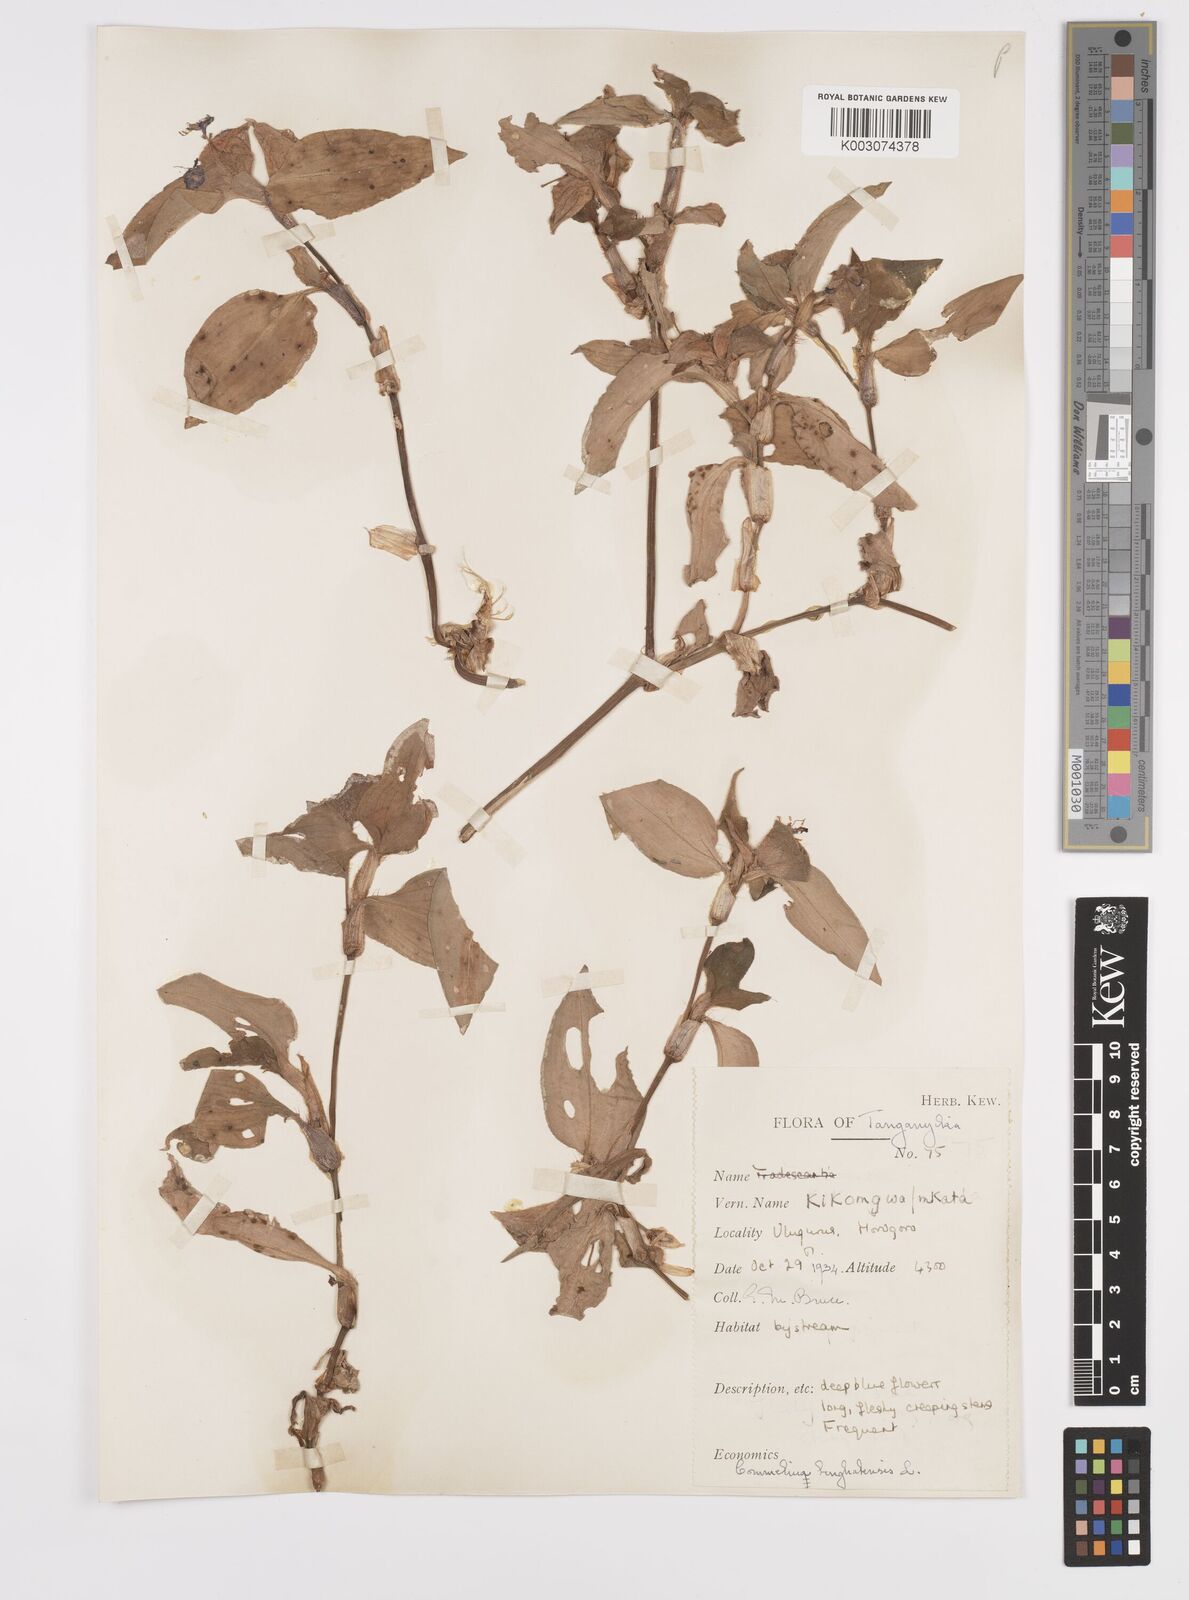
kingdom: Plantae
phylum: Tracheophyta
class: Liliopsida
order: Commelinales
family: Commelinaceae
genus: Commelina
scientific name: Commelina benghalensis
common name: Jio
